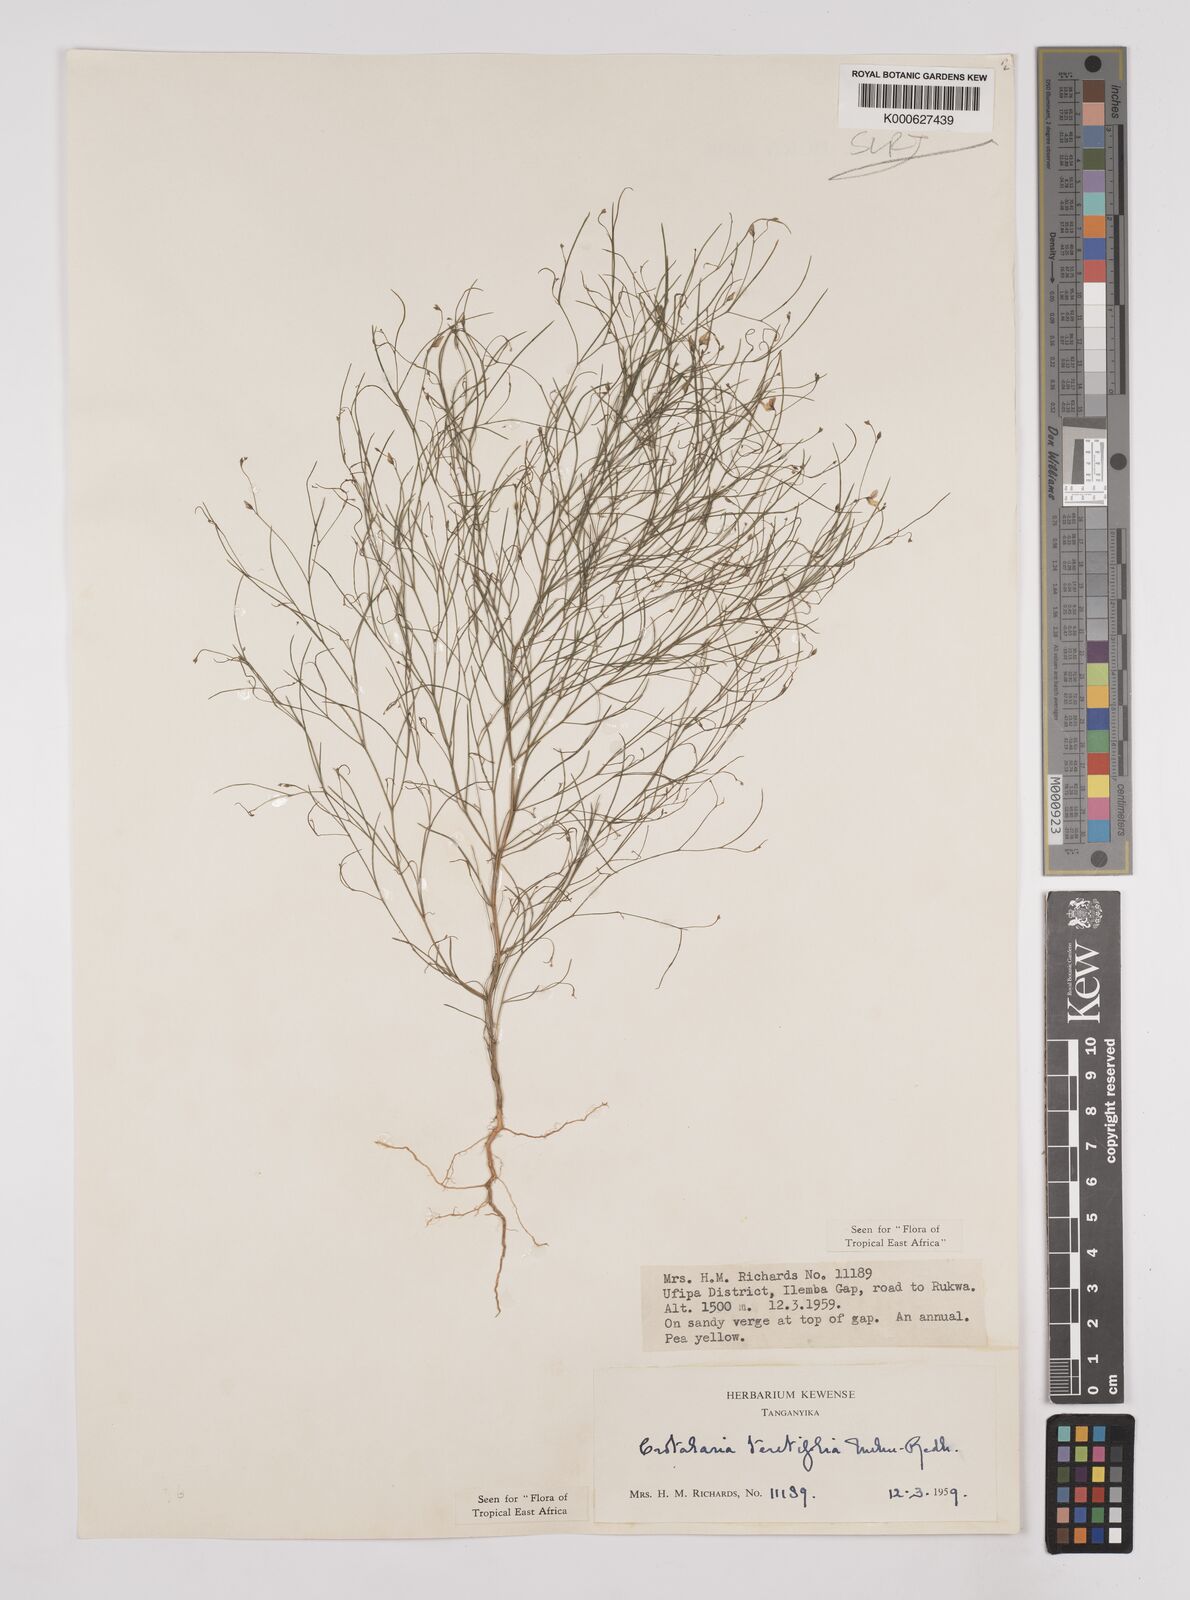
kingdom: Plantae
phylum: Tracheophyta
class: Magnoliopsida
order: Fabales
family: Fabaceae
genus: Crotalaria
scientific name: Crotalaria teretifolia
